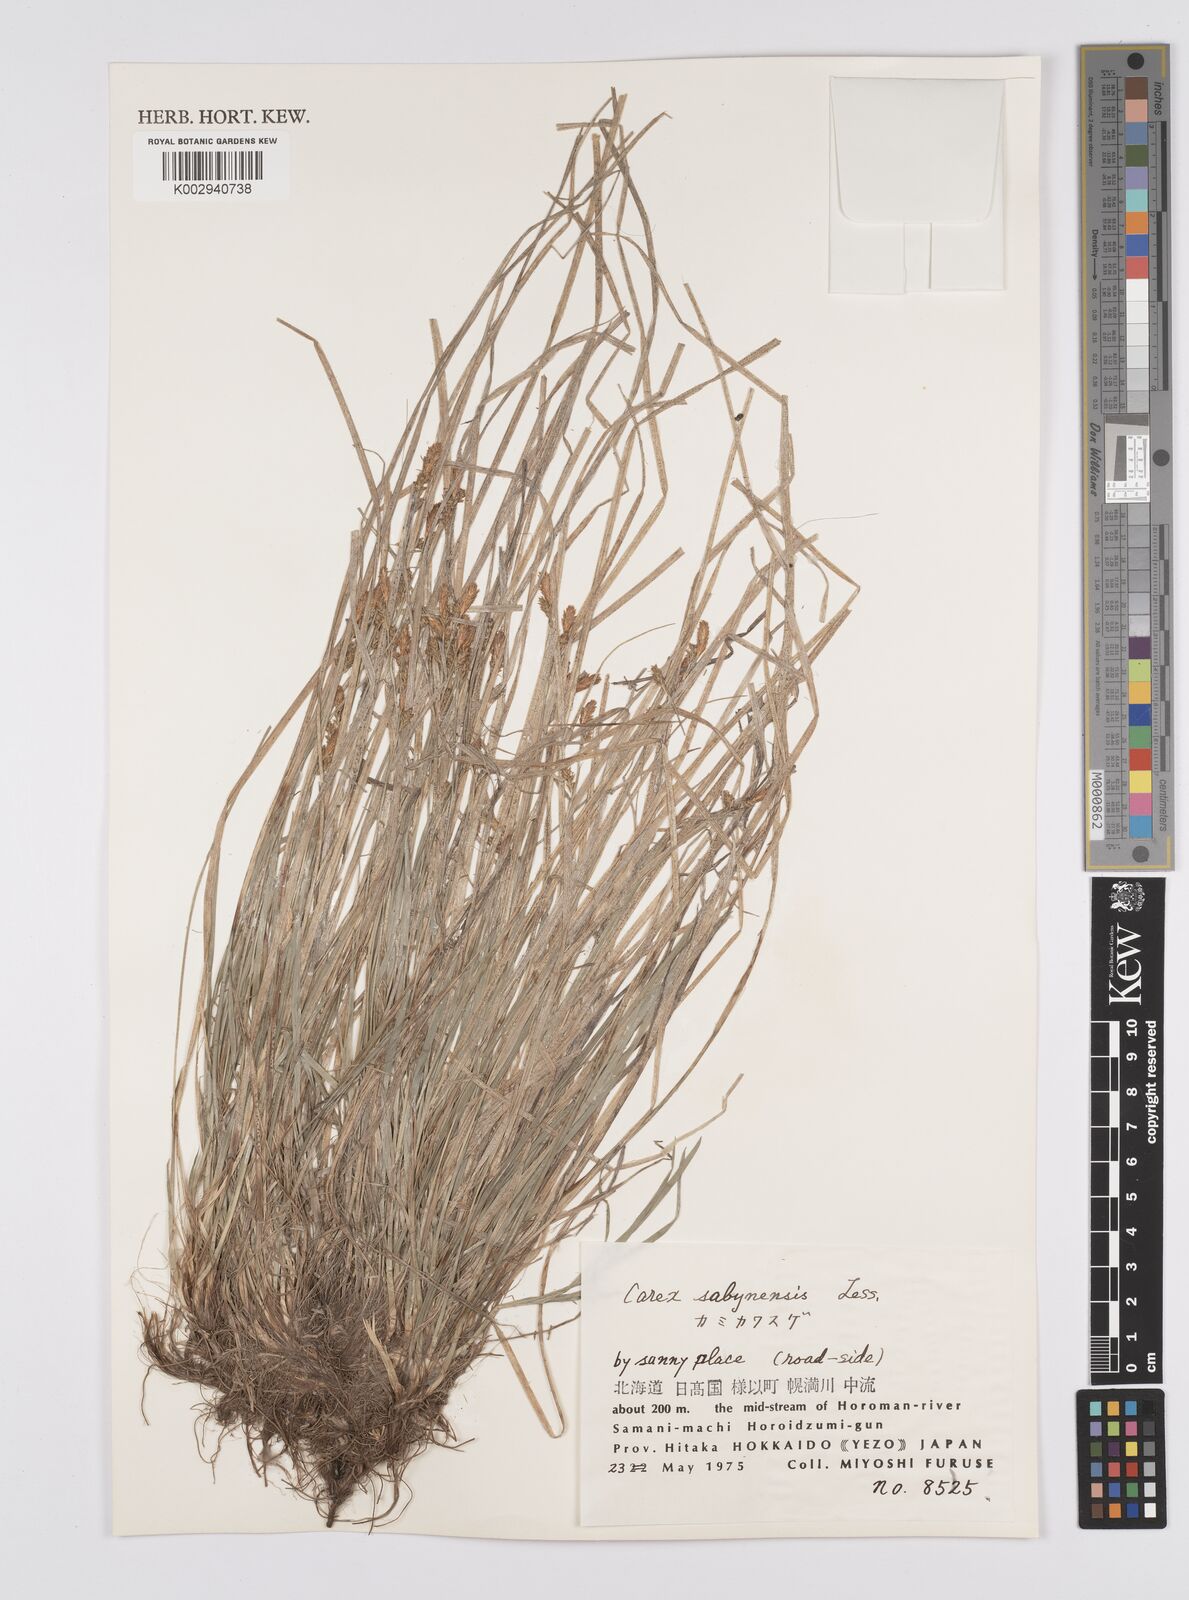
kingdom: Plantae
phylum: Tracheophyta
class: Liliopsida
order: Poales
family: Cyperaceae
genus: Carex
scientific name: Carex umbrosa
